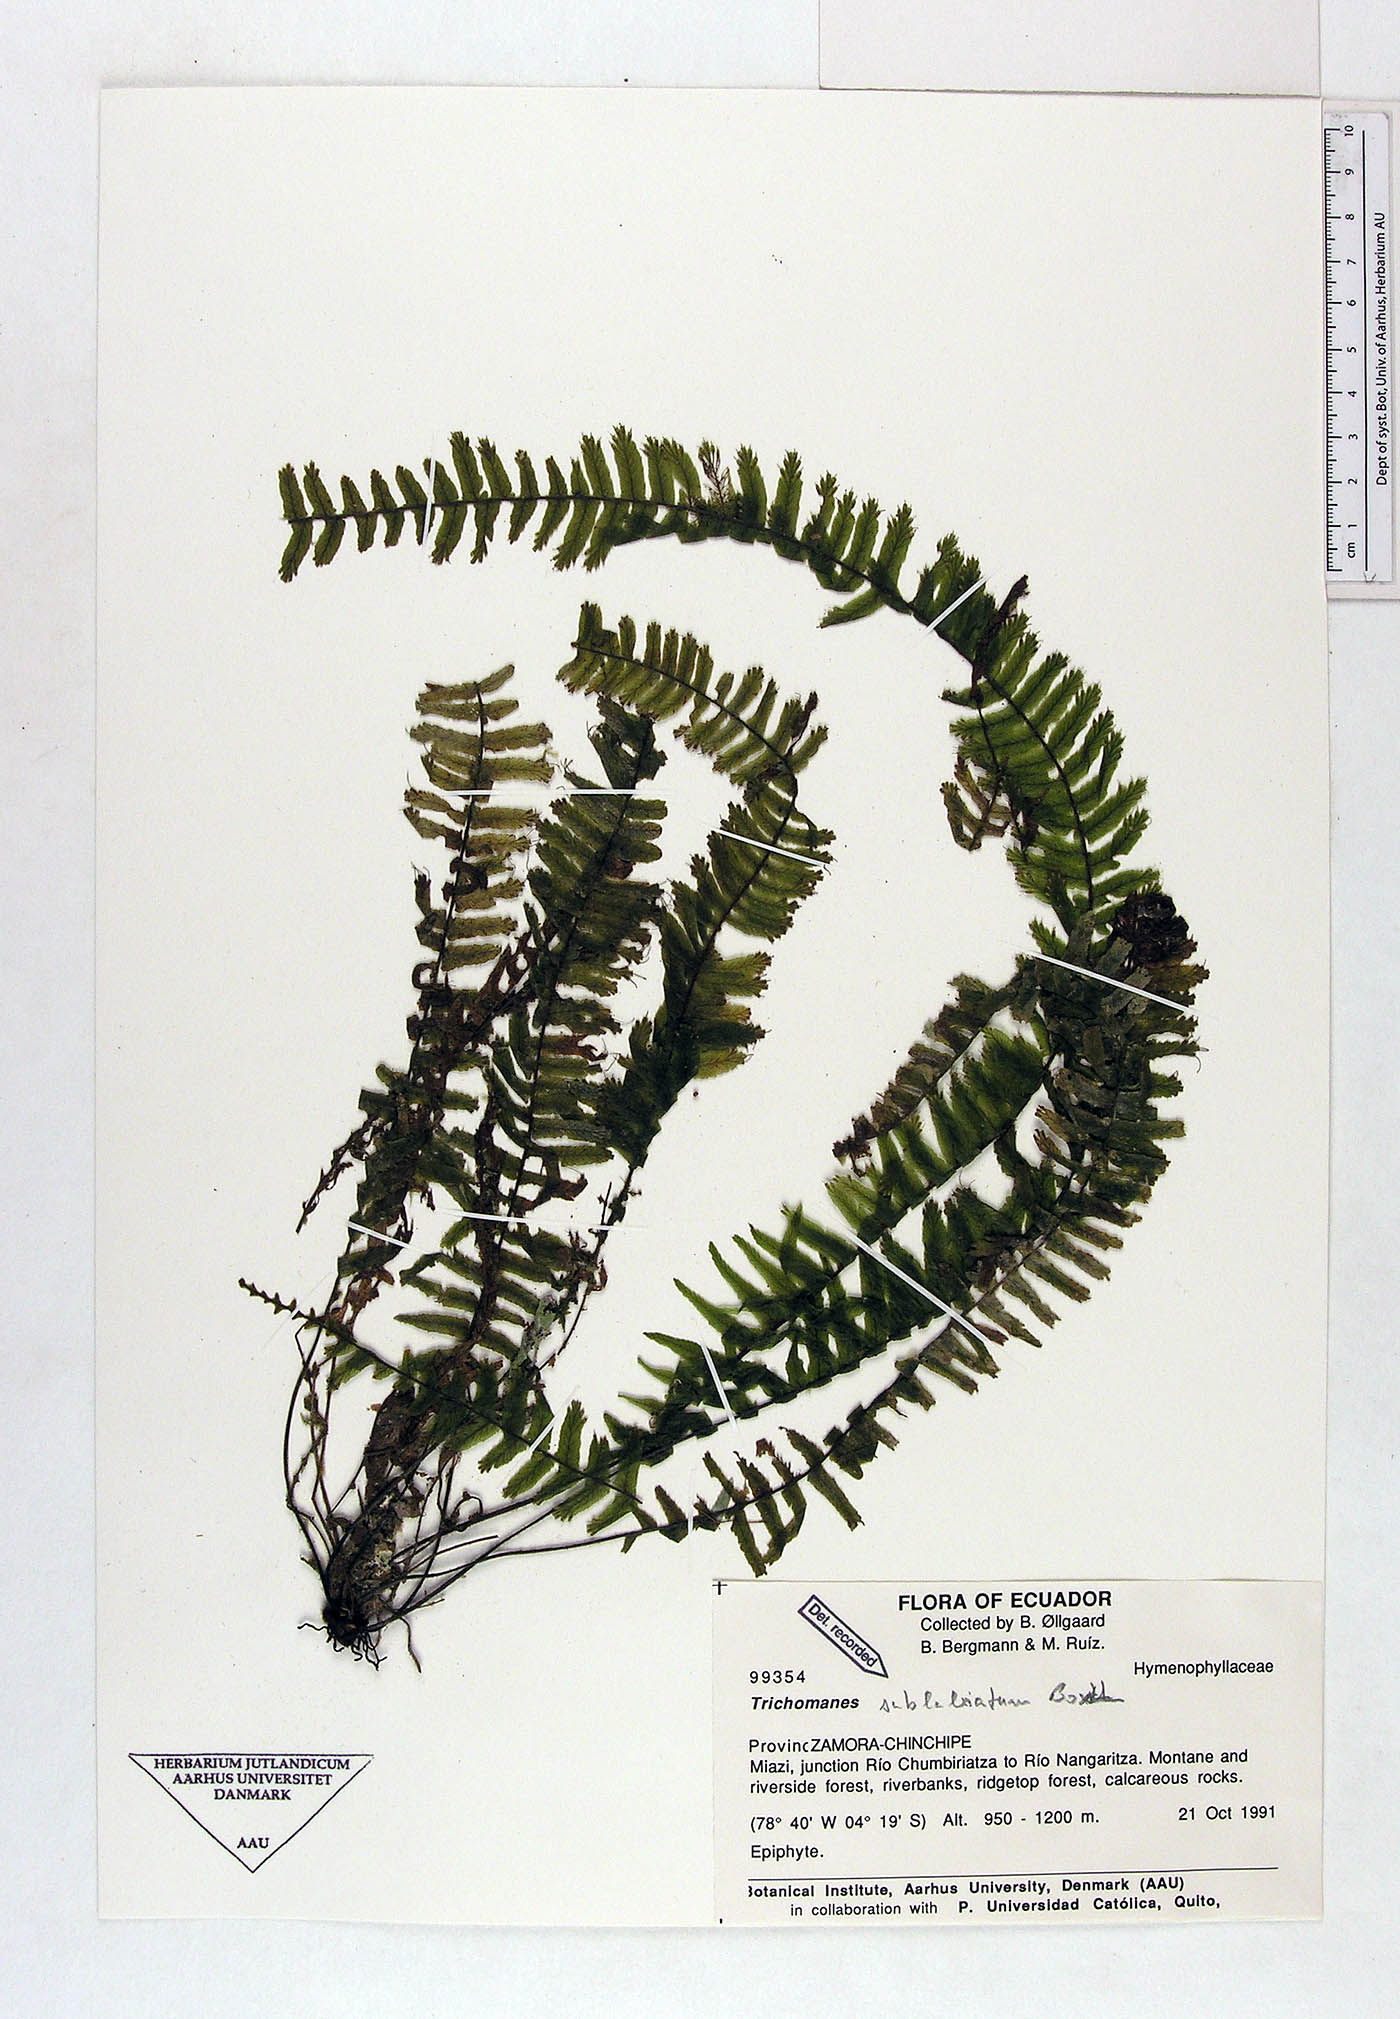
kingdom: Plantae
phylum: Tracheophyta
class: Polypodiopsida
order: Hymenophyllales
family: Hymenophyllaceae
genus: Trichomanes
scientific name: Trichomanes sublabiatum
